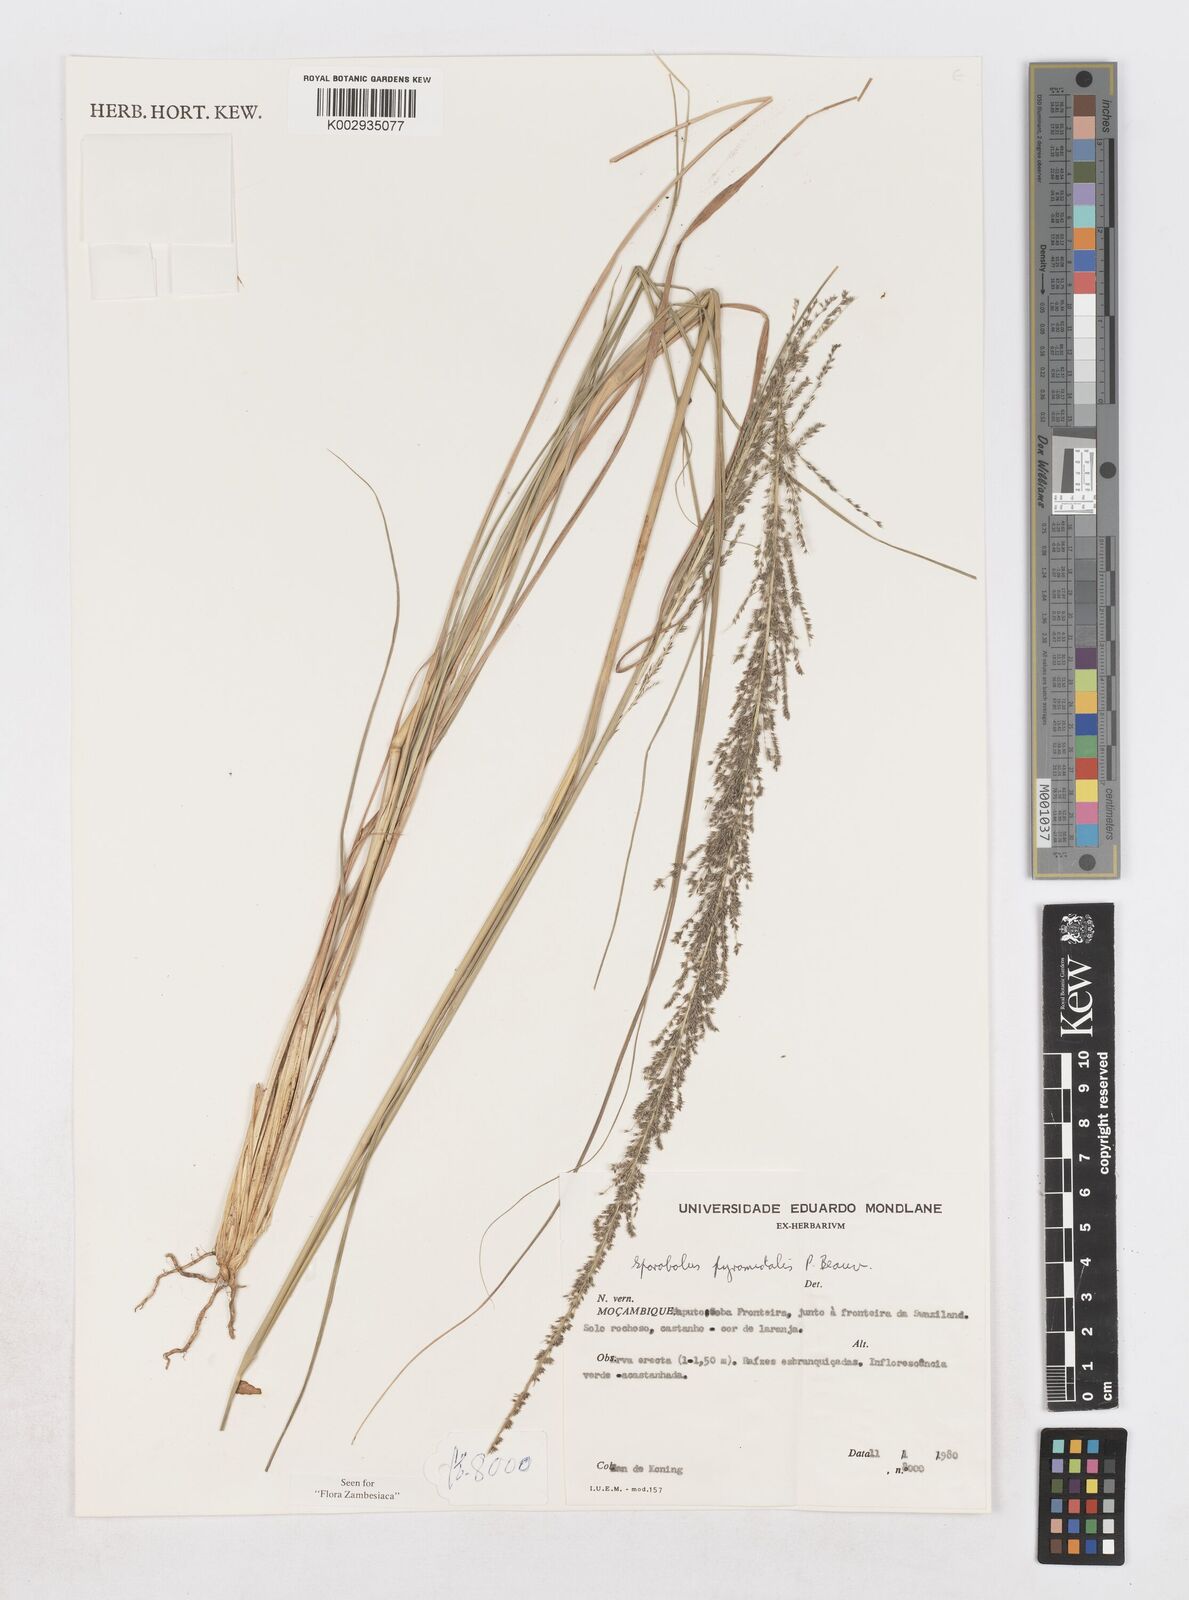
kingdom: Plantae
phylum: Tracheophyta
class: Liliopsida
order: Poales
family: Poaceae
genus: Sporobolus
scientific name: Sporobolus pyramidalis
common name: West indian dropseed
